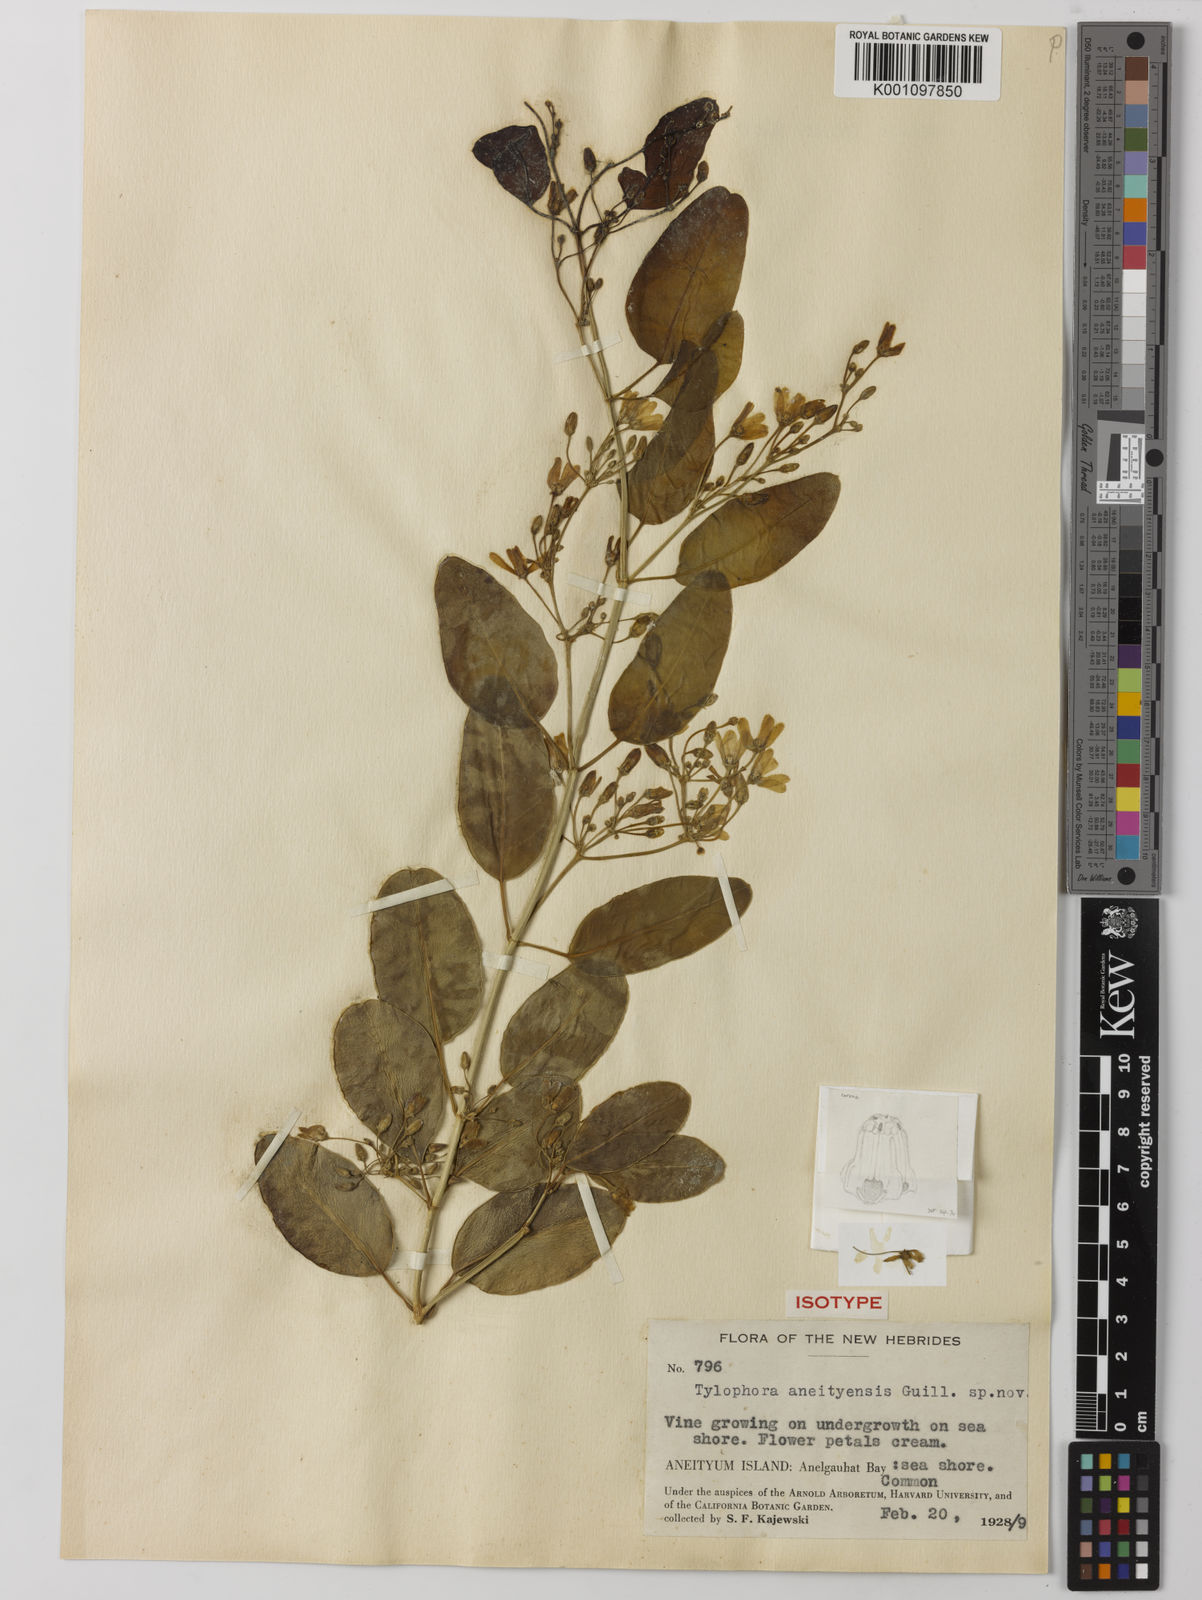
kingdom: Plantae
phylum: Tracheophyta
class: Magnoliopsida
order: Gentianales
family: Apocynaceae
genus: Vincetoxicum
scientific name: Vincetoxicum biglandulosum
